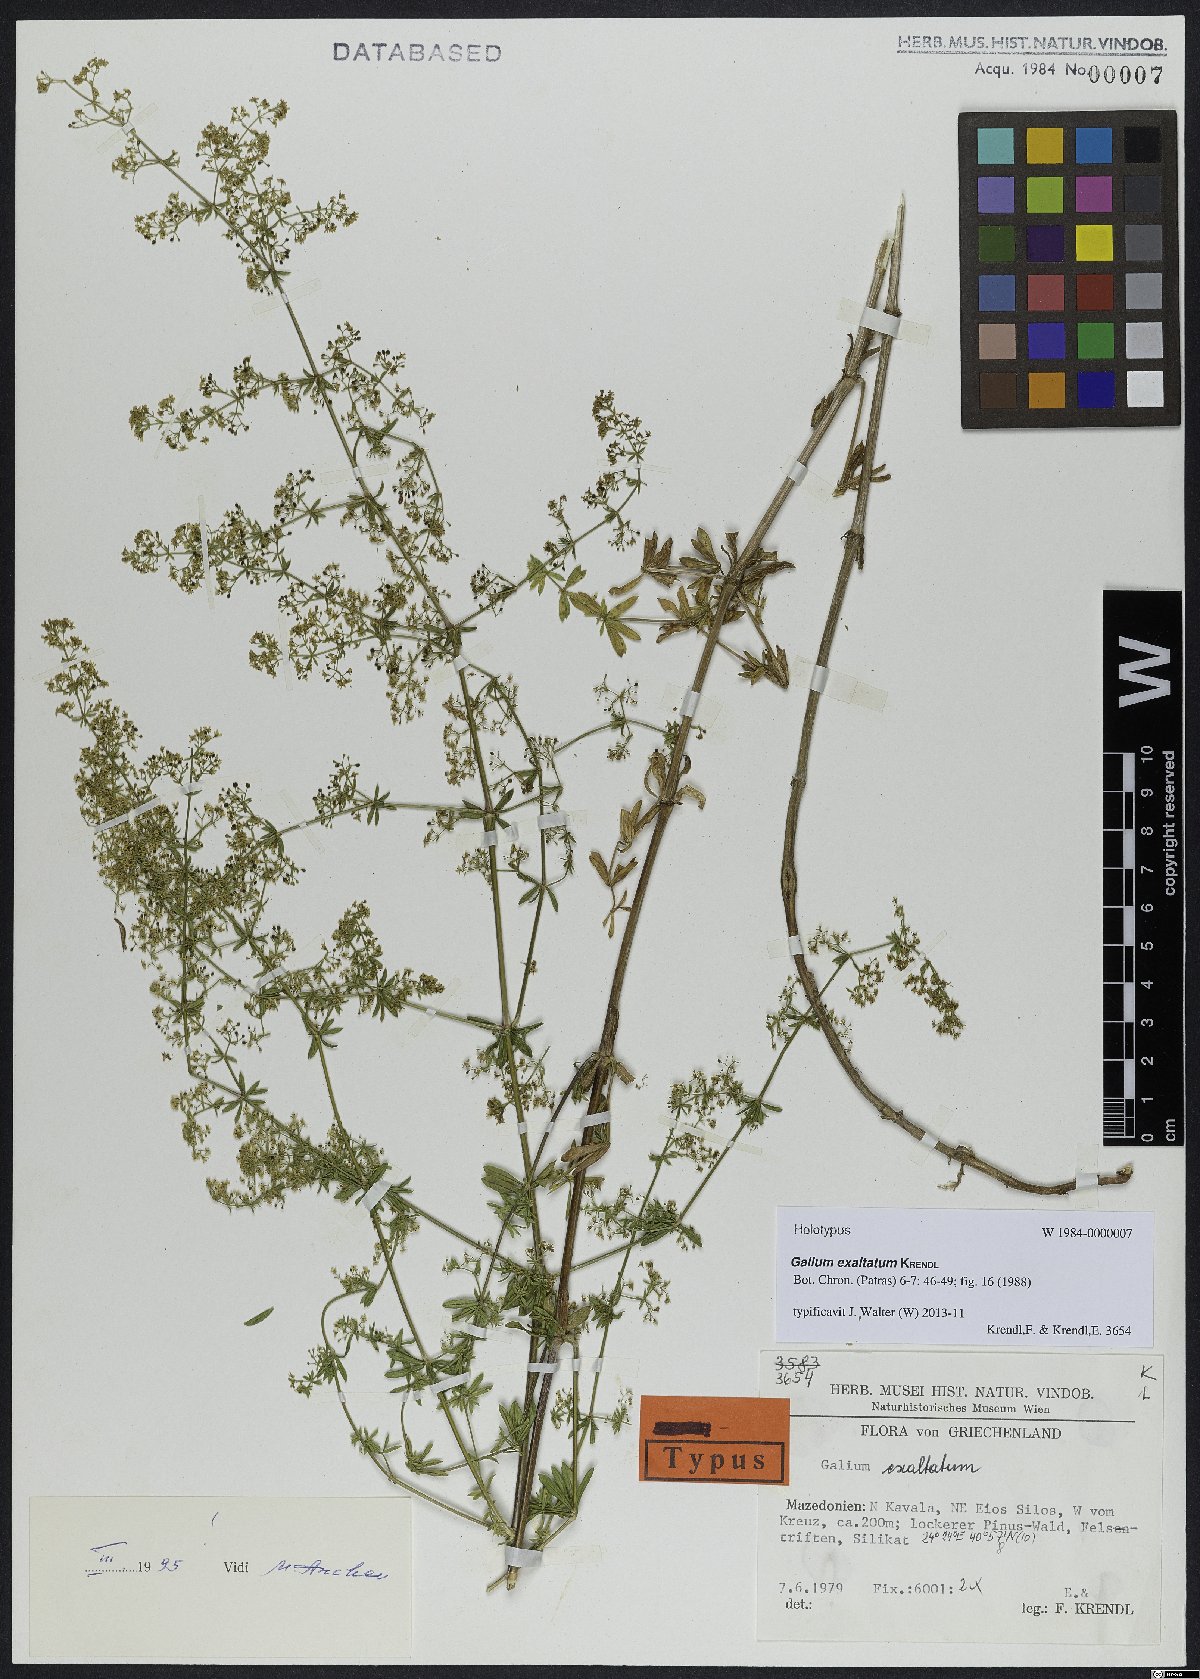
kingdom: Plantae
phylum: Tracheophyta
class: Magnoliopsida
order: Gentianales
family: Rubiaceae
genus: Galium
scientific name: Galium exaltatum
